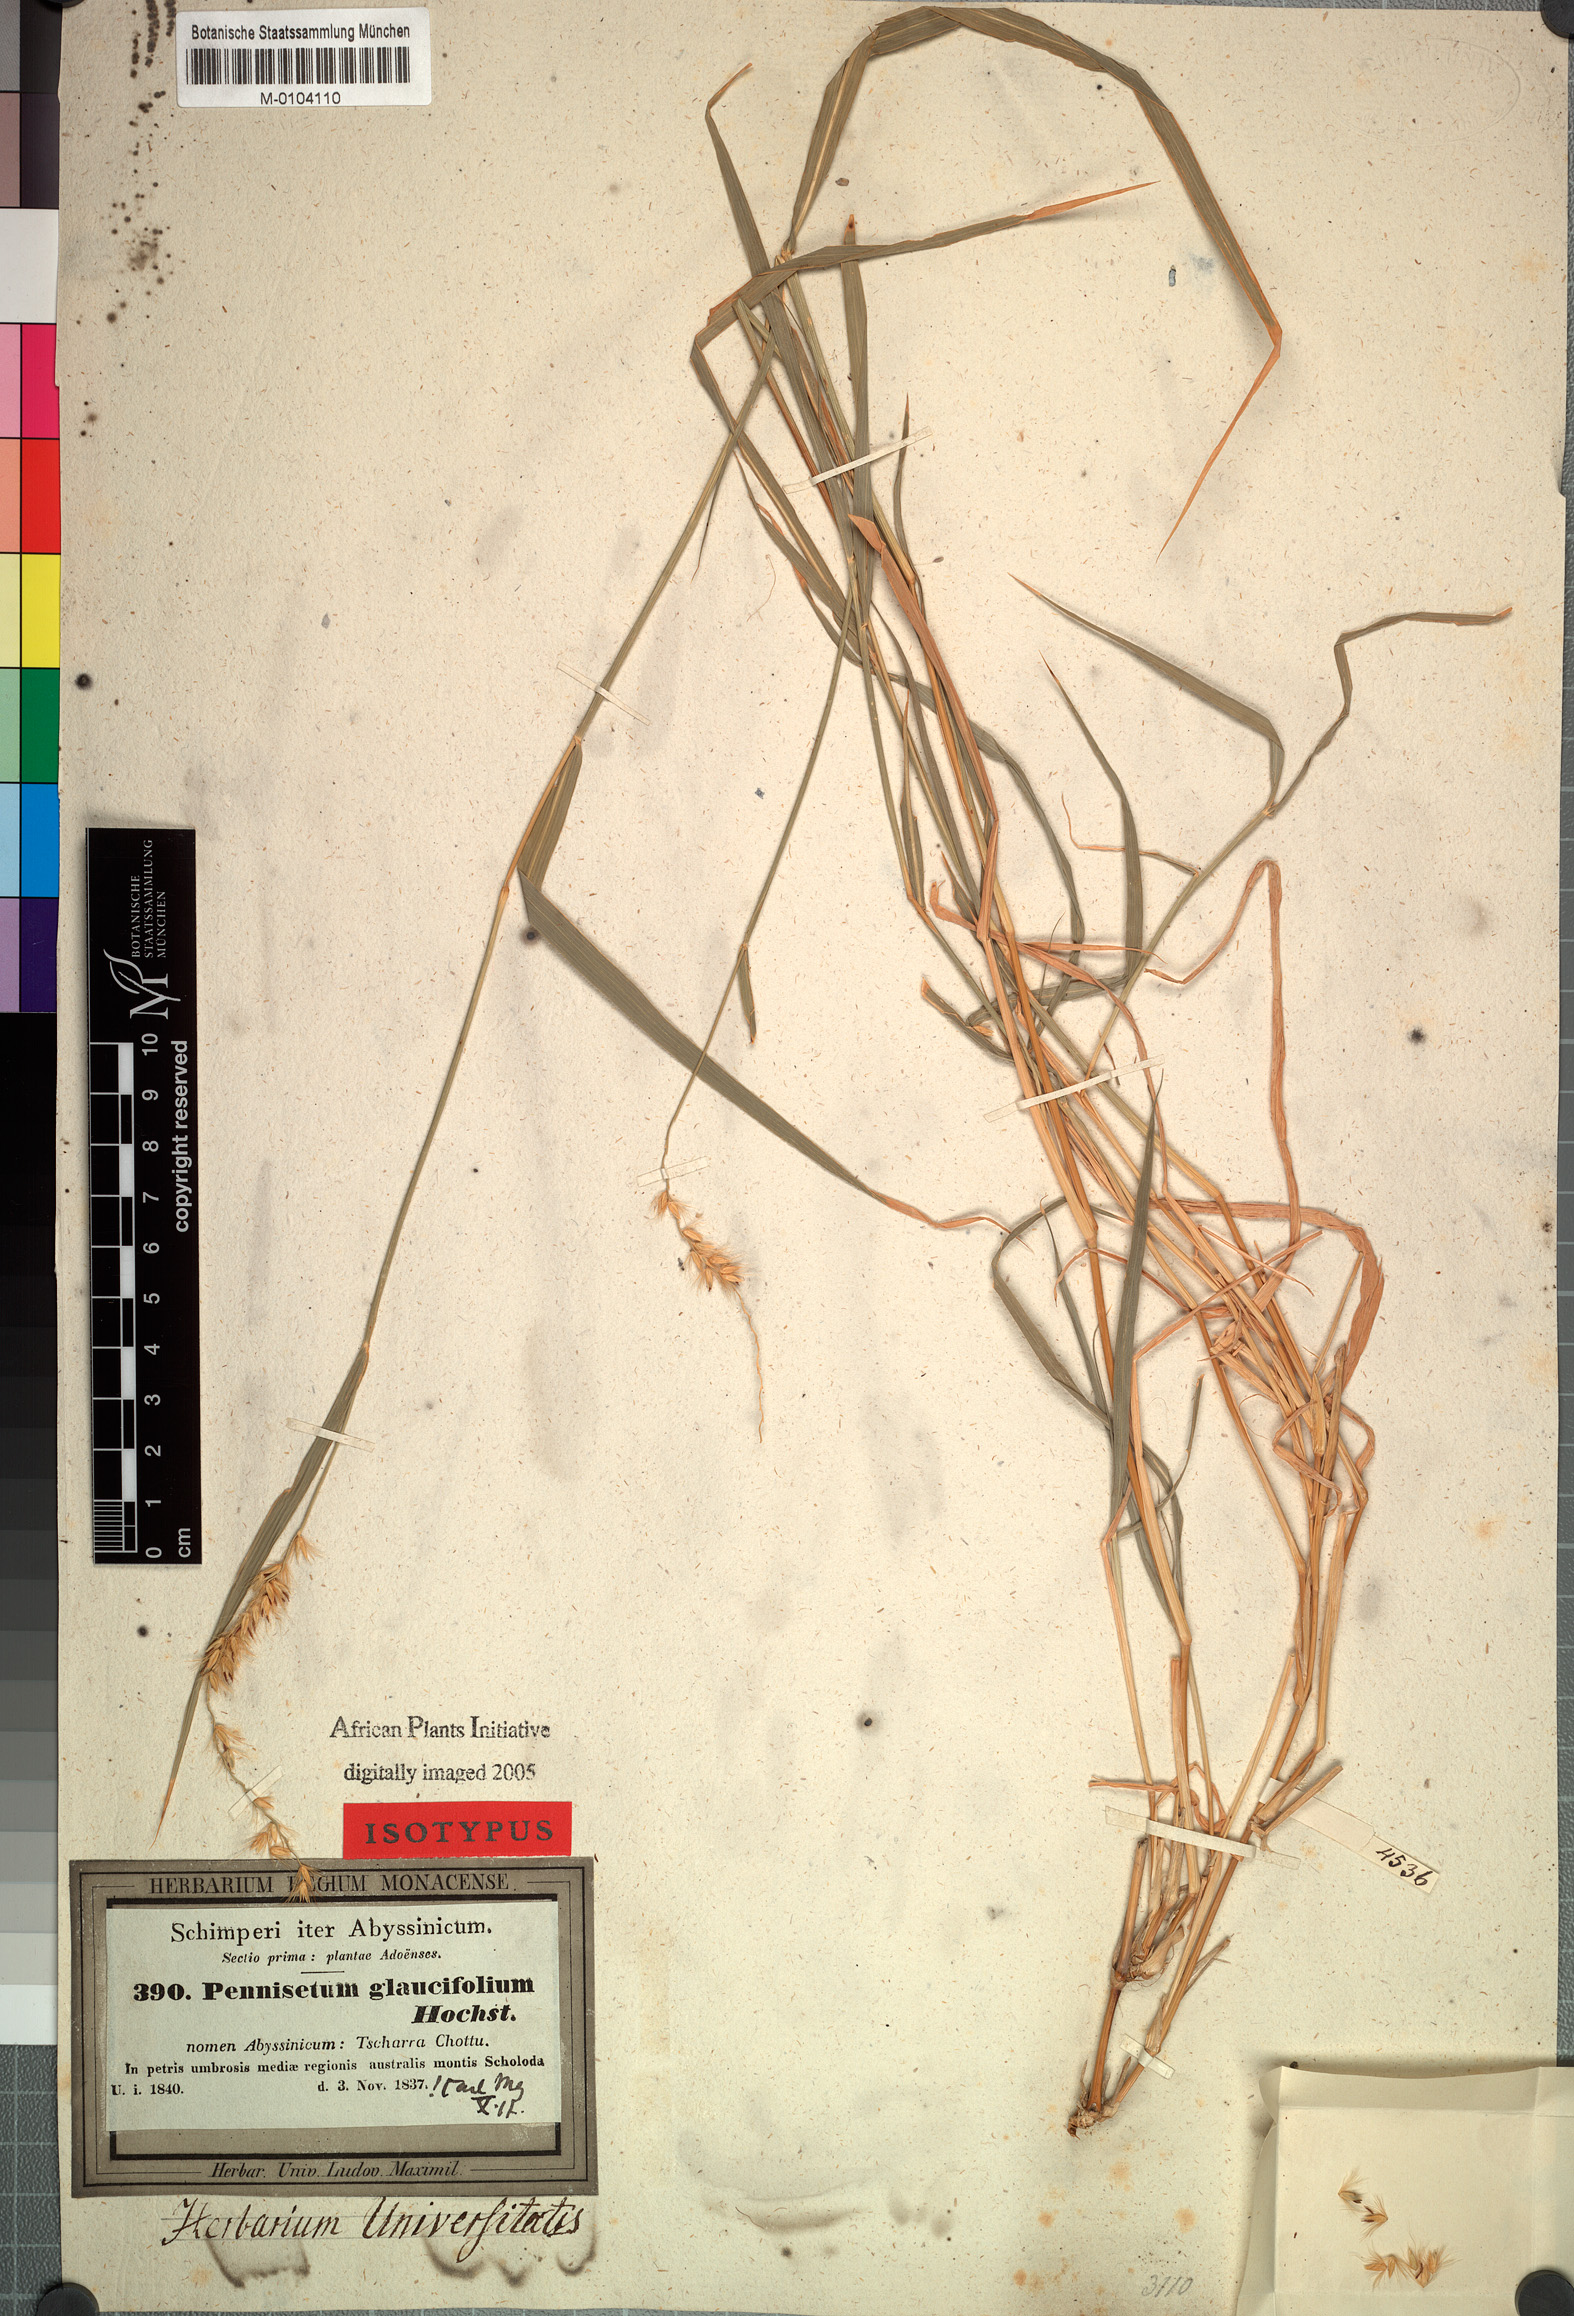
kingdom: Plantae
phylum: Tracheophyta
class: Liliopsida
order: Poales
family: Poaceae
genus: Cenchrus
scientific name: Cenchrus glaucifolius
